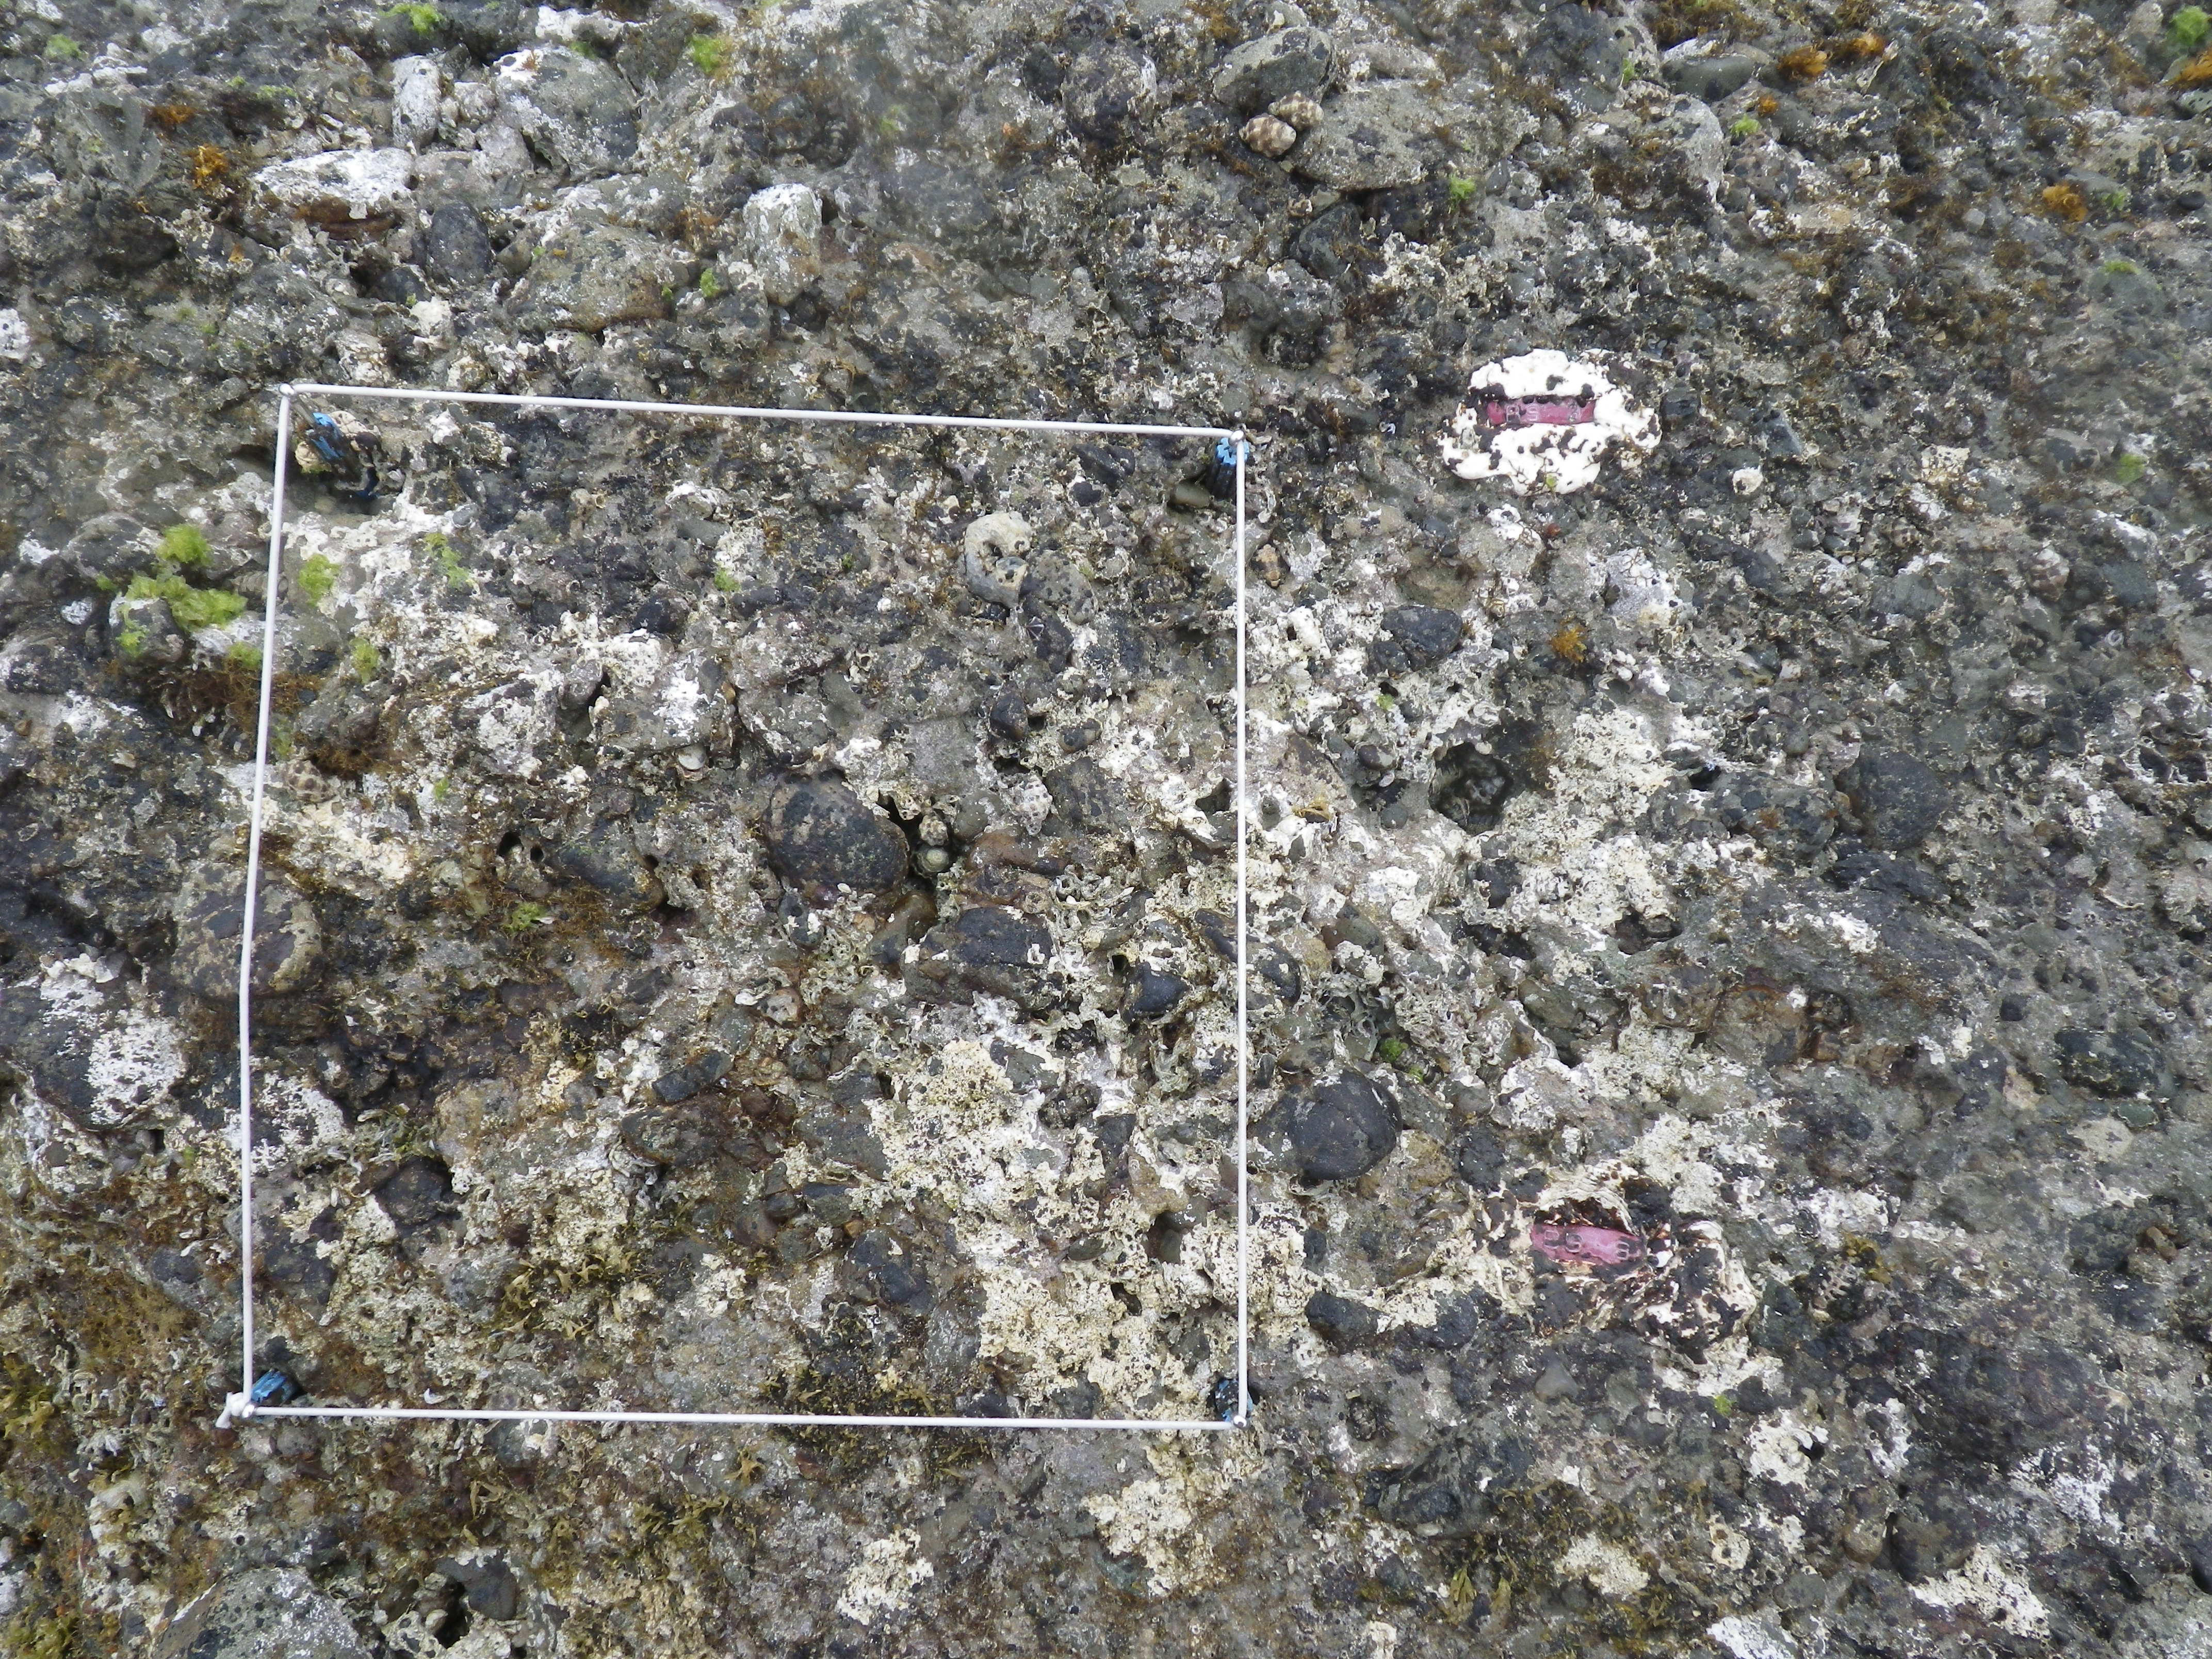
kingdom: Animalia
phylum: Arthropoda
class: Maxillopoda
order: Sessilia
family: Chthamalidae
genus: Chthamalus
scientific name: Chthamalus challengeri
